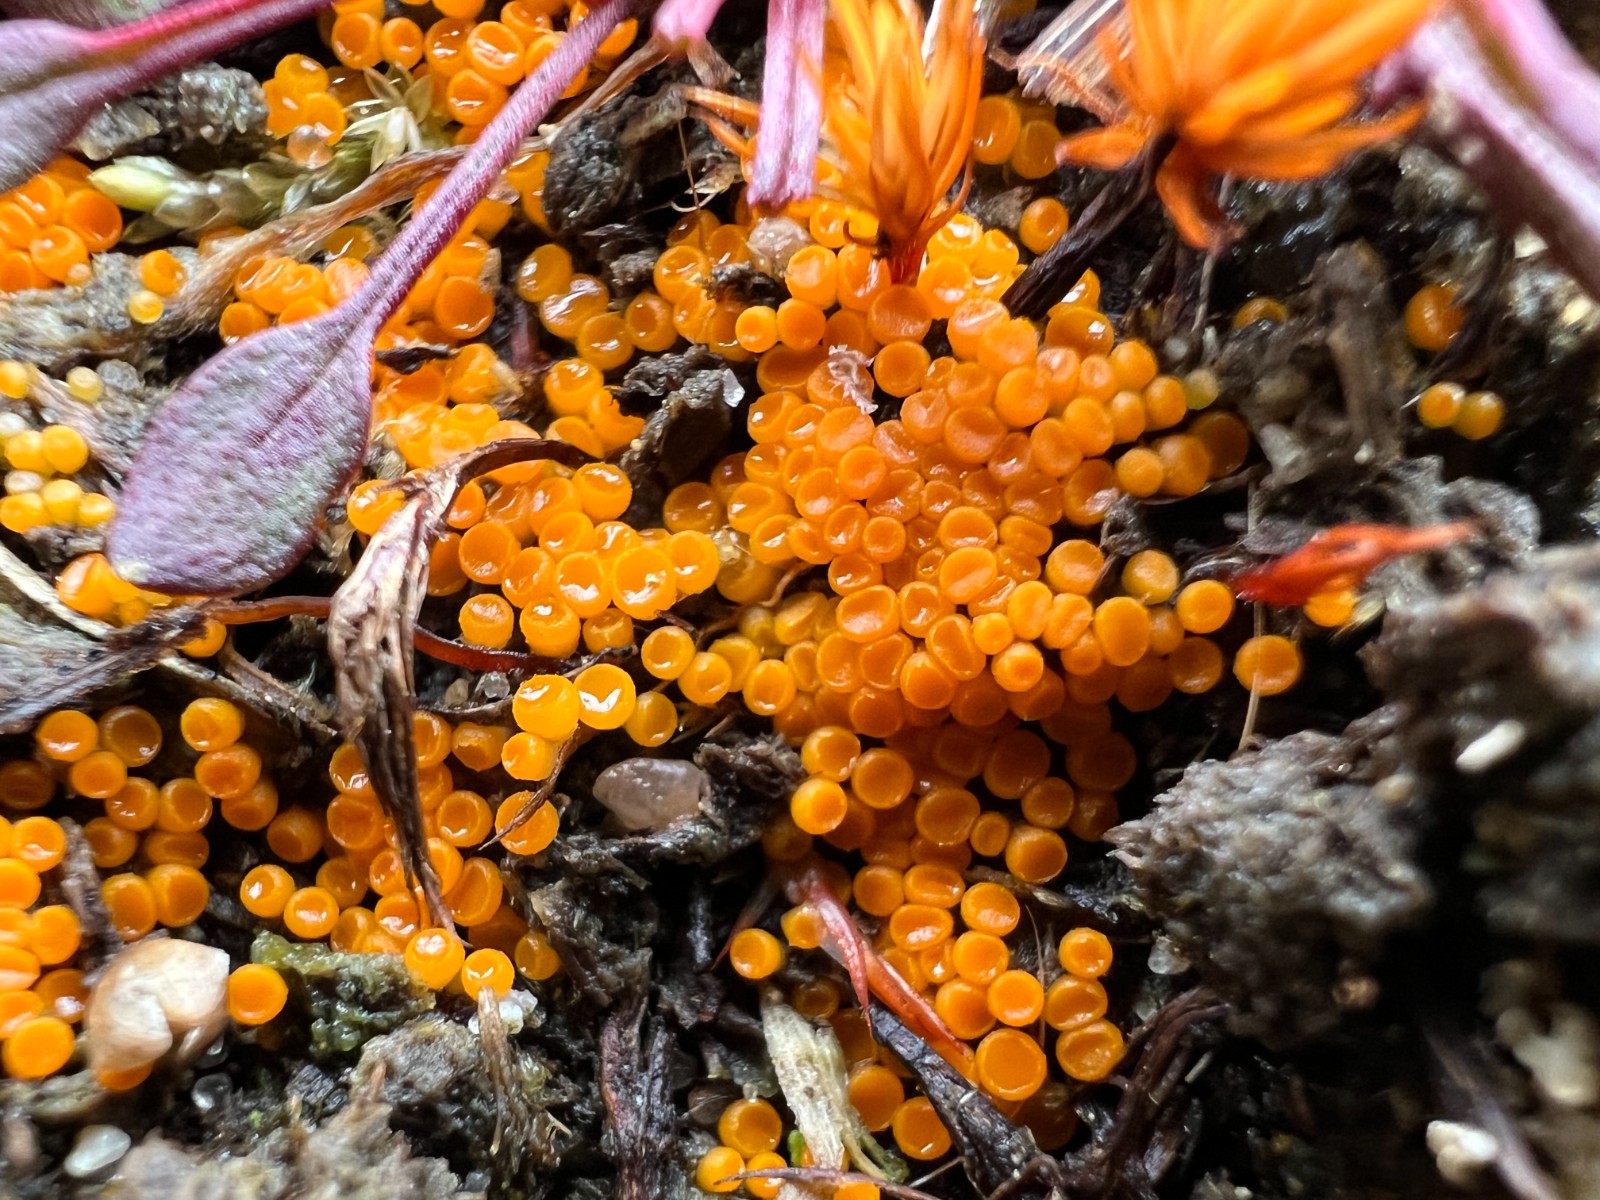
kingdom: Fungi
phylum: Ascomycota
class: Pezizomycetes
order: Pezizales
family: Pyronemataceae
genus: Byssonectria
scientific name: Byssonectria terrestris
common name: hjortebæger
